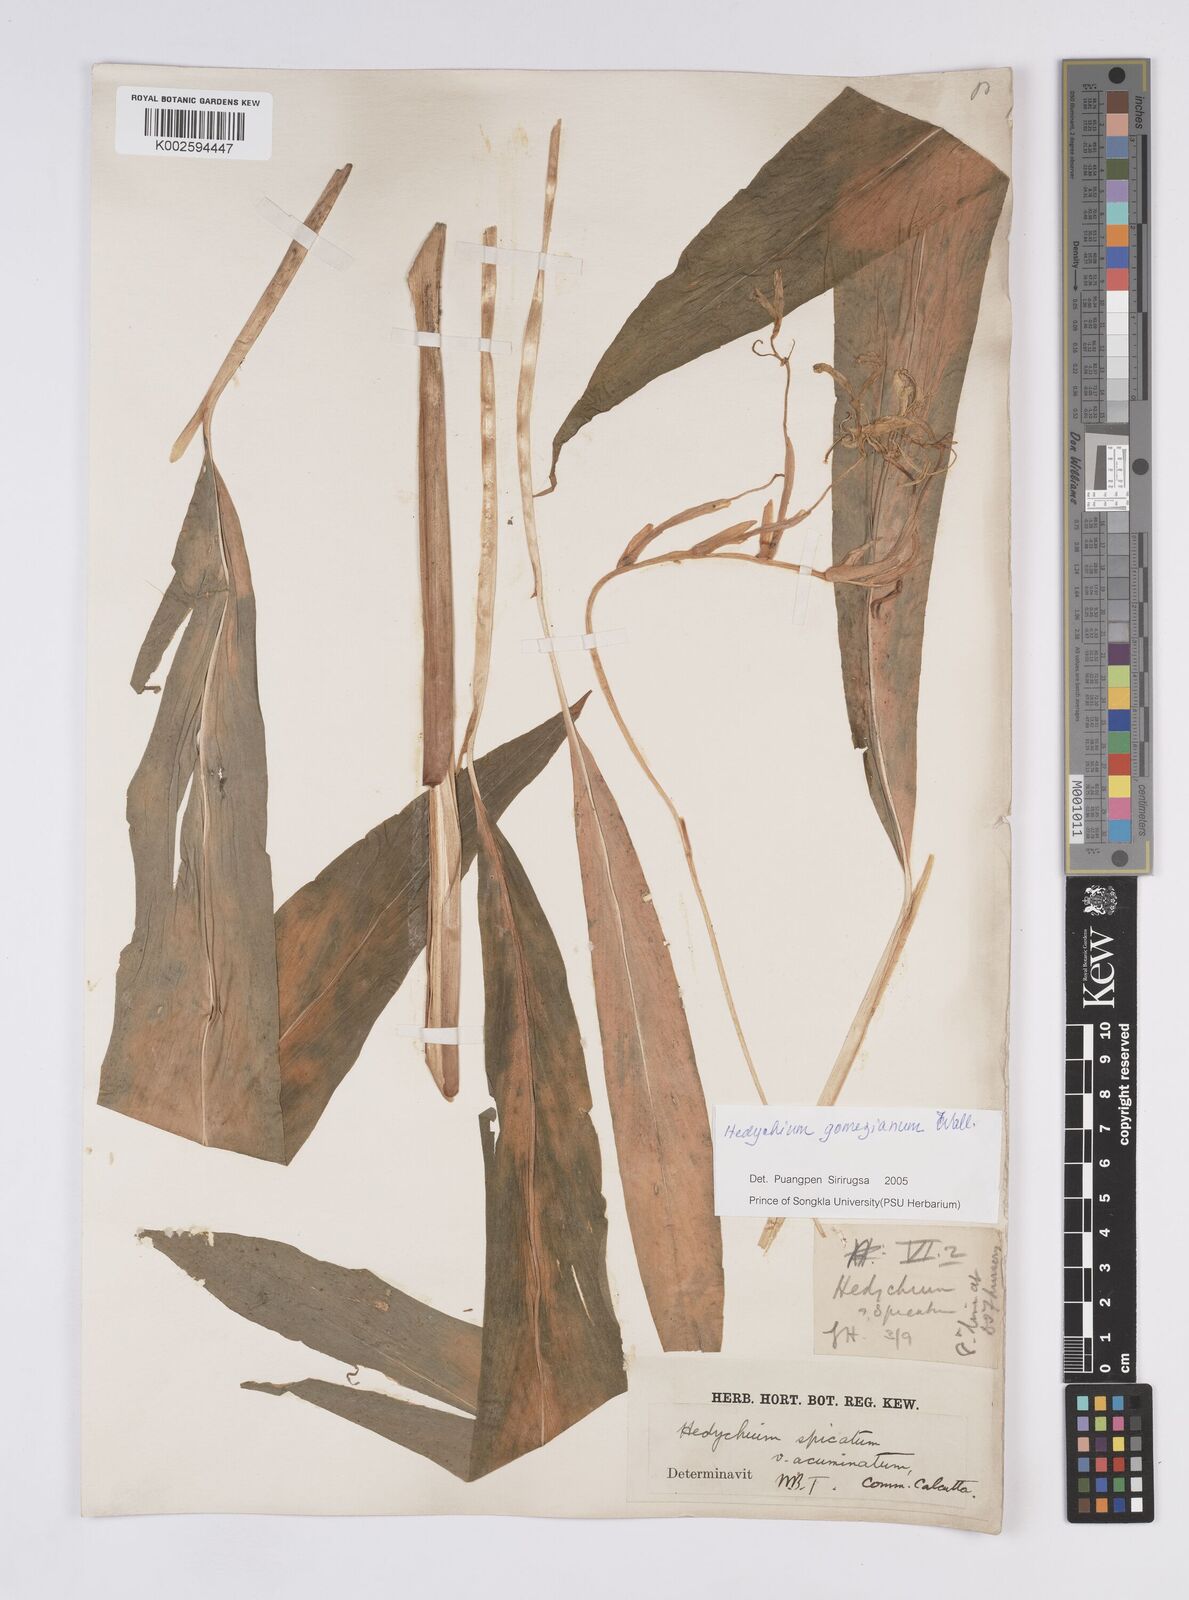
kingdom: Plantae
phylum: Tracheophyta
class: Liliopsida
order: Zingiberales
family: Zingiberaceae
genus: Hedychium
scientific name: Hedychium gomezianum
